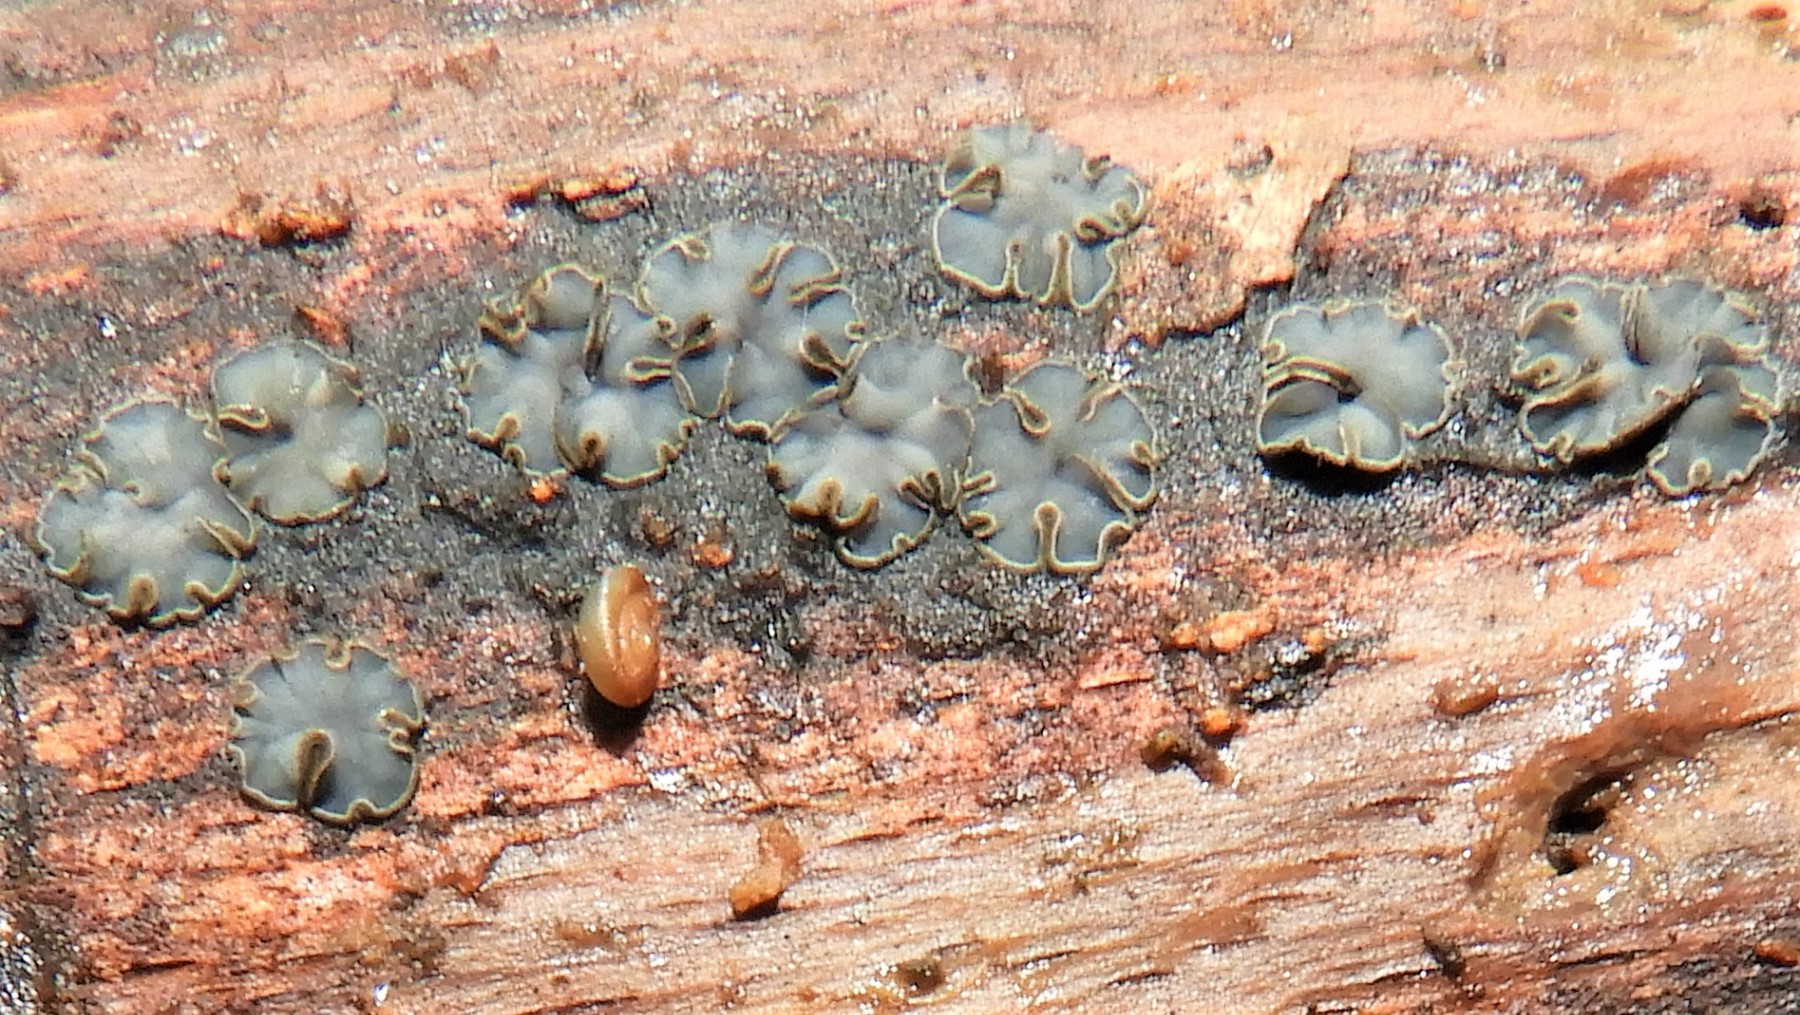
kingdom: Fungi
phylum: Ascomycota
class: Leotiomycetes
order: Helotiales
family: Mollisiaceae
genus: Mollisia
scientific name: Mollisia
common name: gråskive
